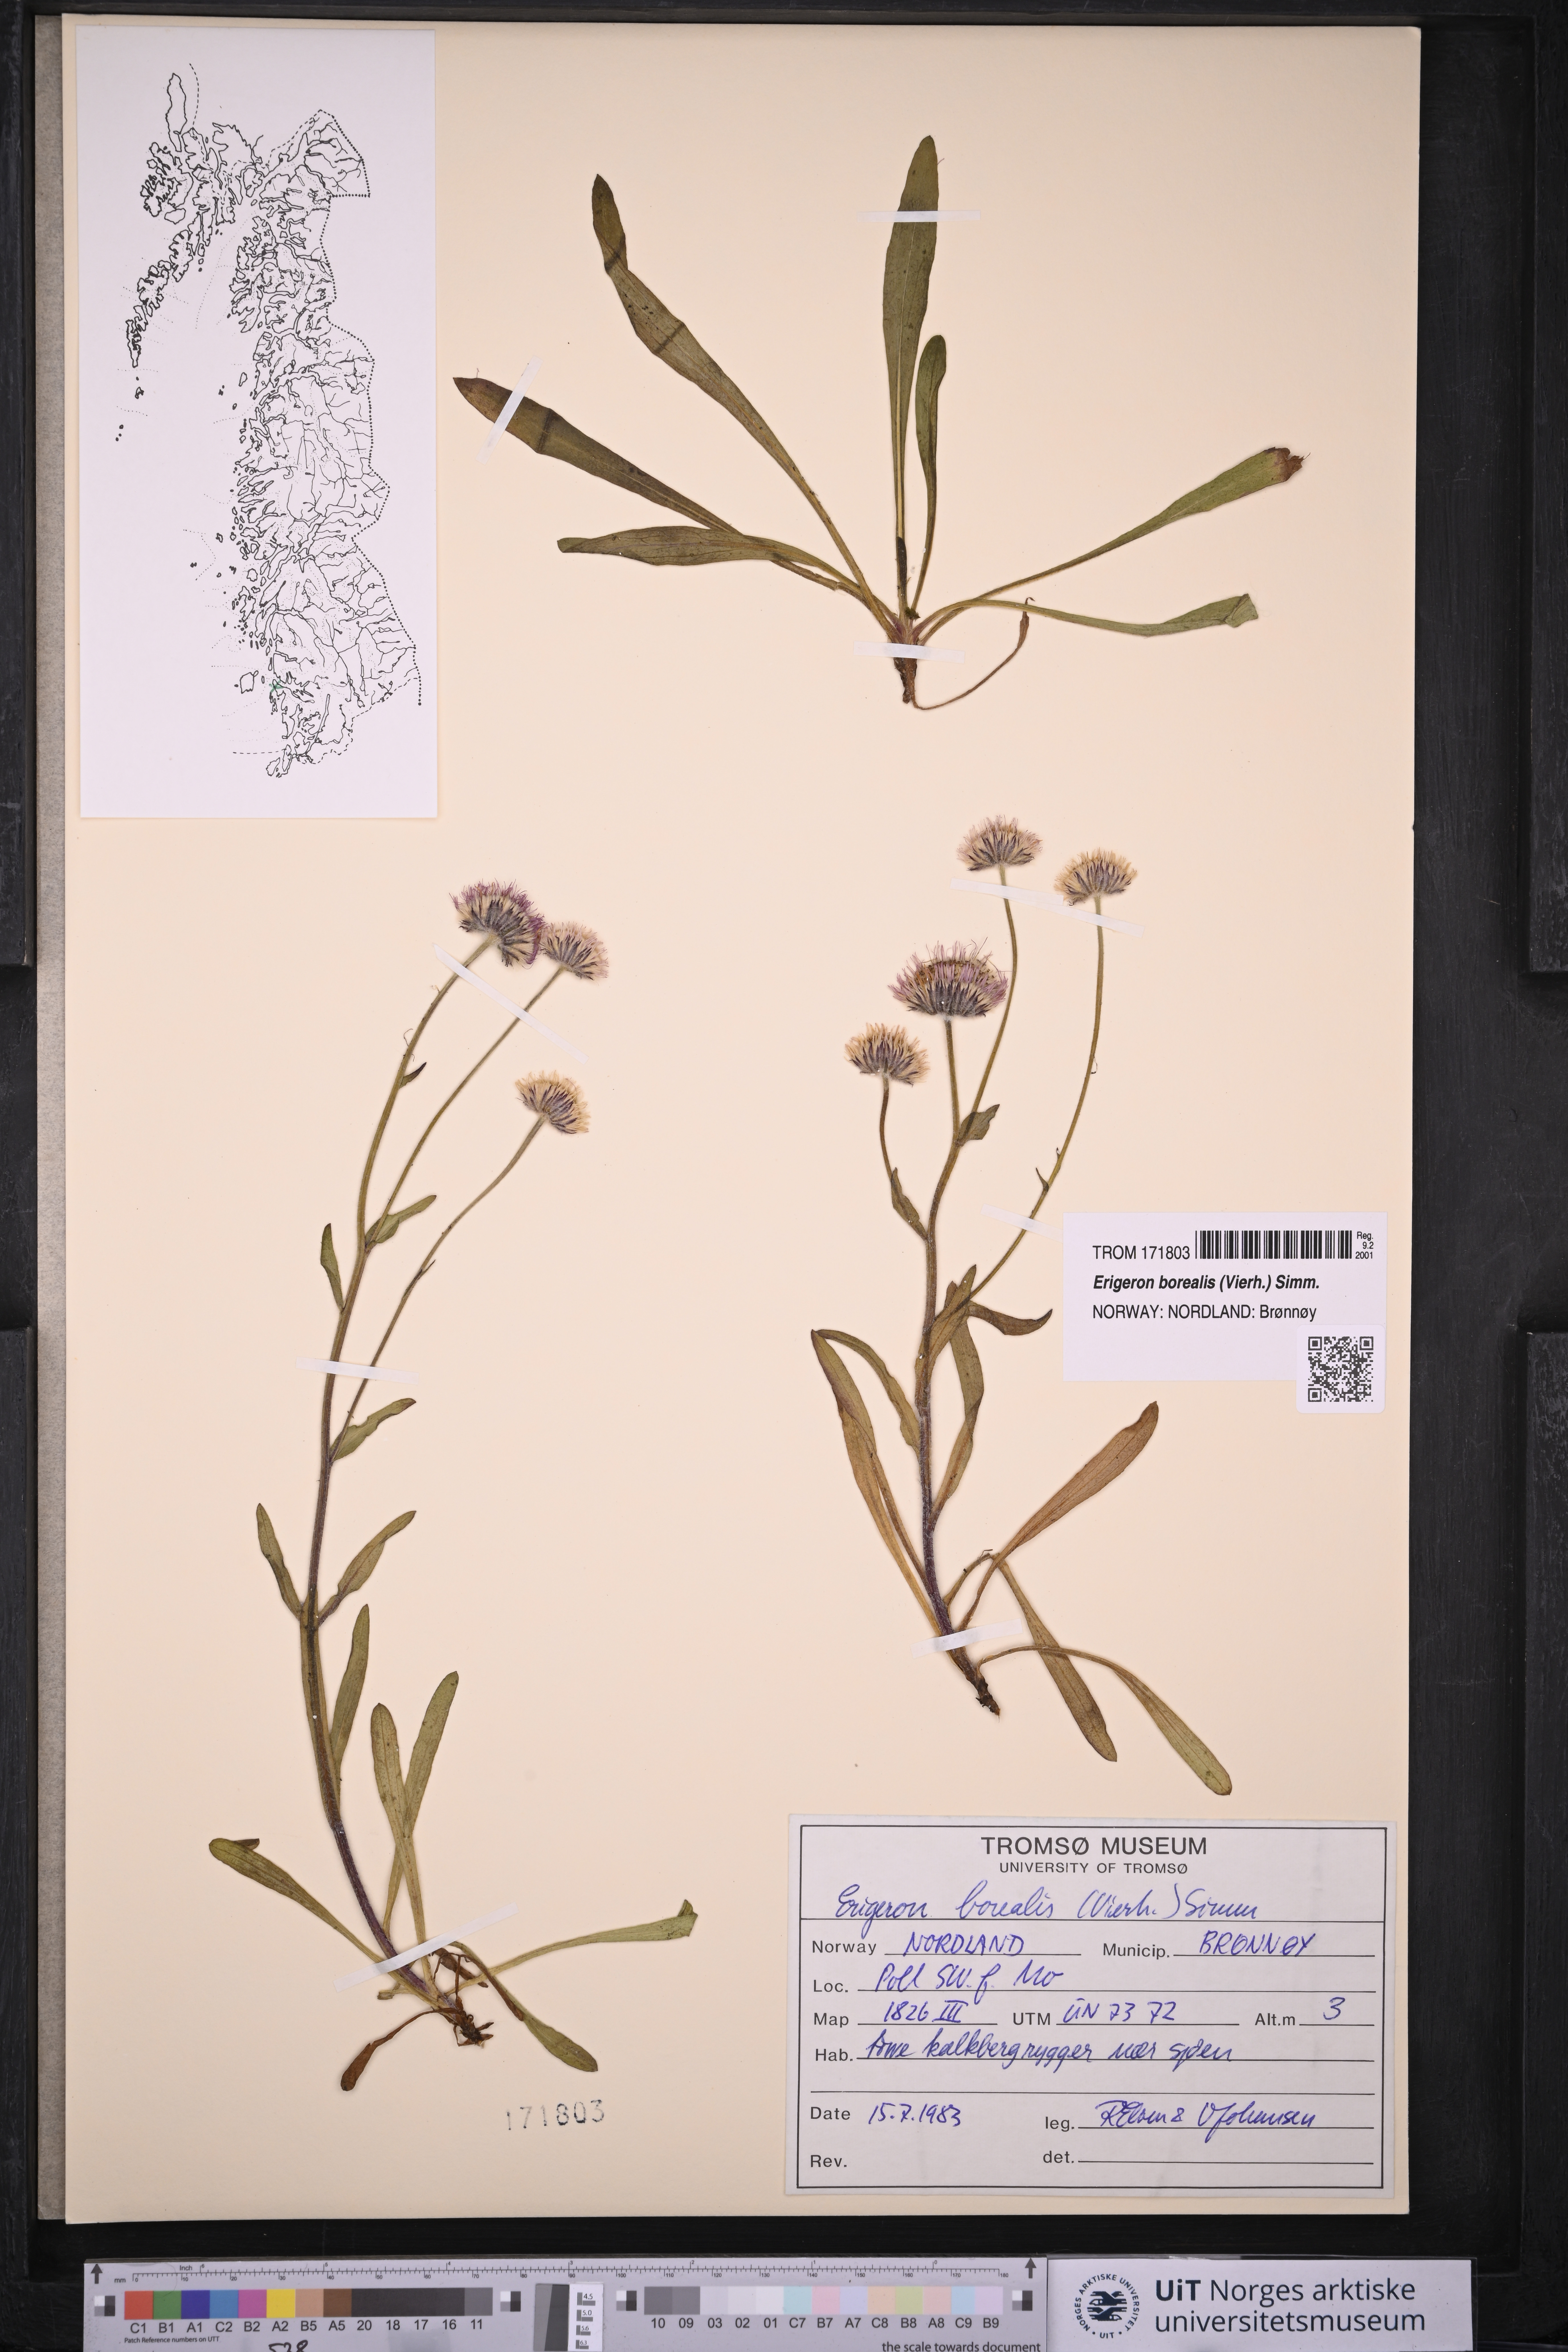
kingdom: Plantae
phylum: Tracheophyta
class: Magnoliopsida
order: Asterales
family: Asteraceae
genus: Erigeron
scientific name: Erigeron borealis
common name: Alpine fleabane
